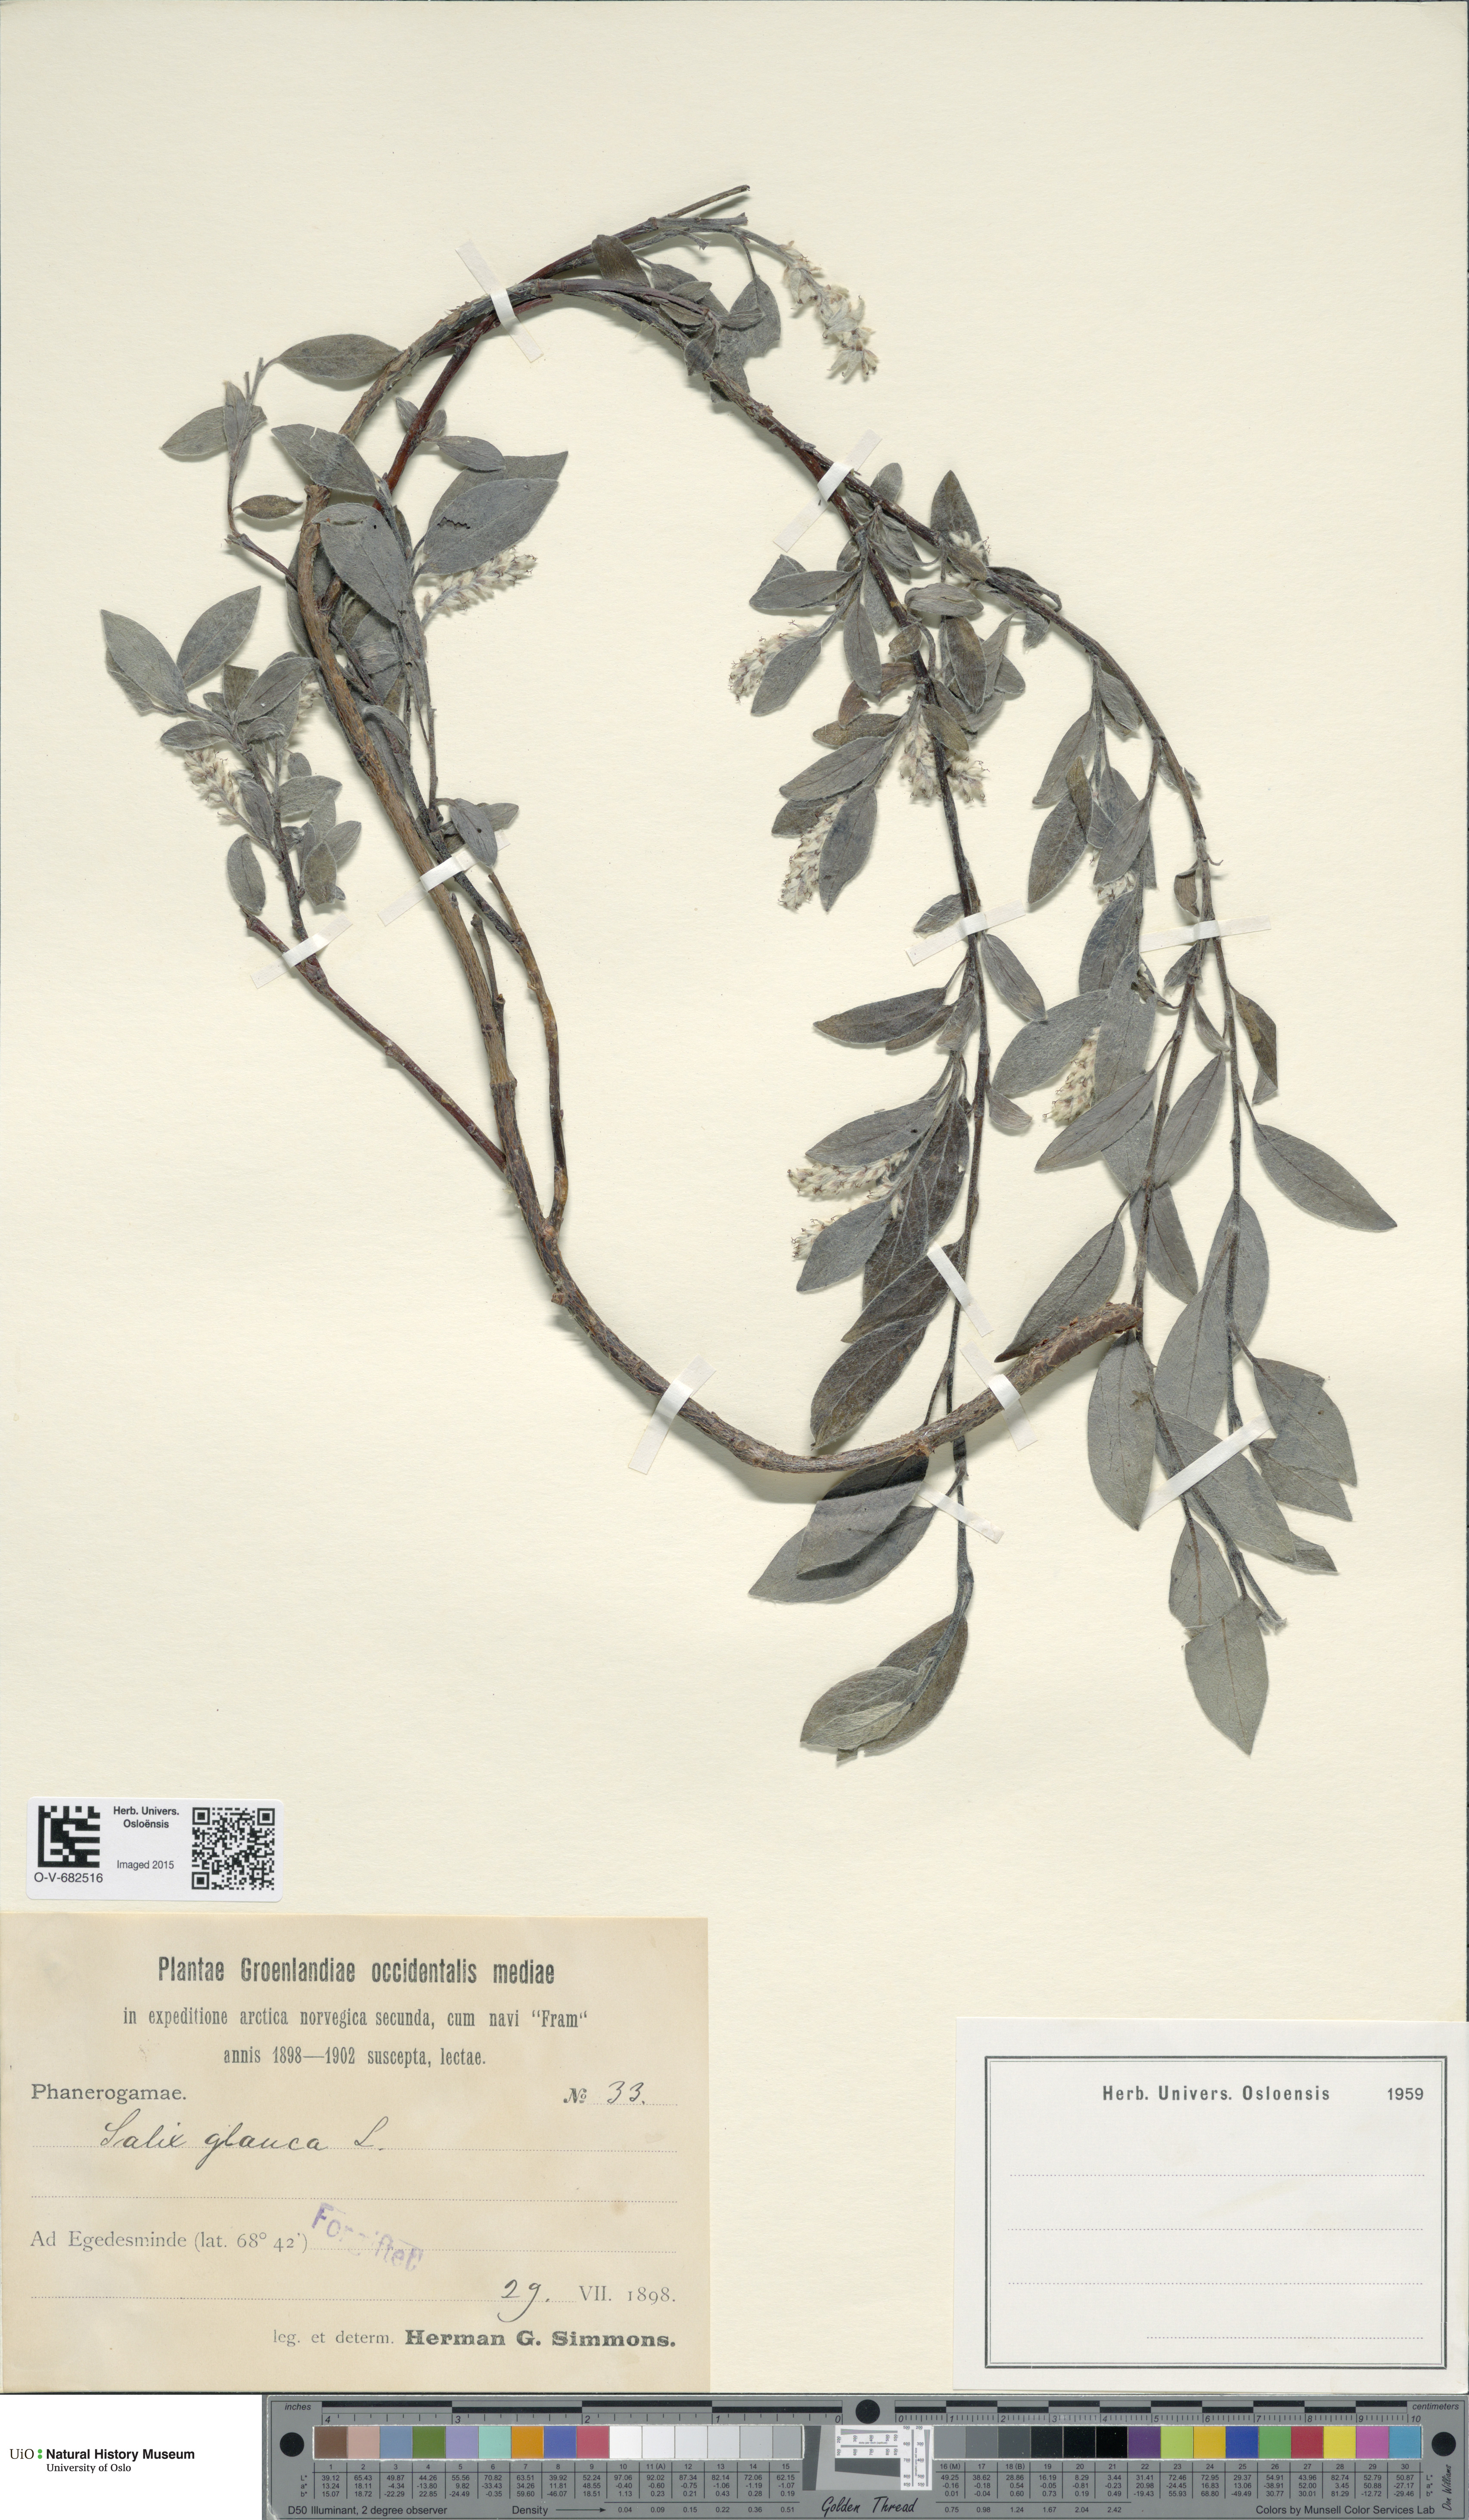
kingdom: Plantae
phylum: Tracheophyta
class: Magnoliopsida
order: Malpighiales
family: Salicaceae
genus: Salix
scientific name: Salix glauca
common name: Glaucous willow
